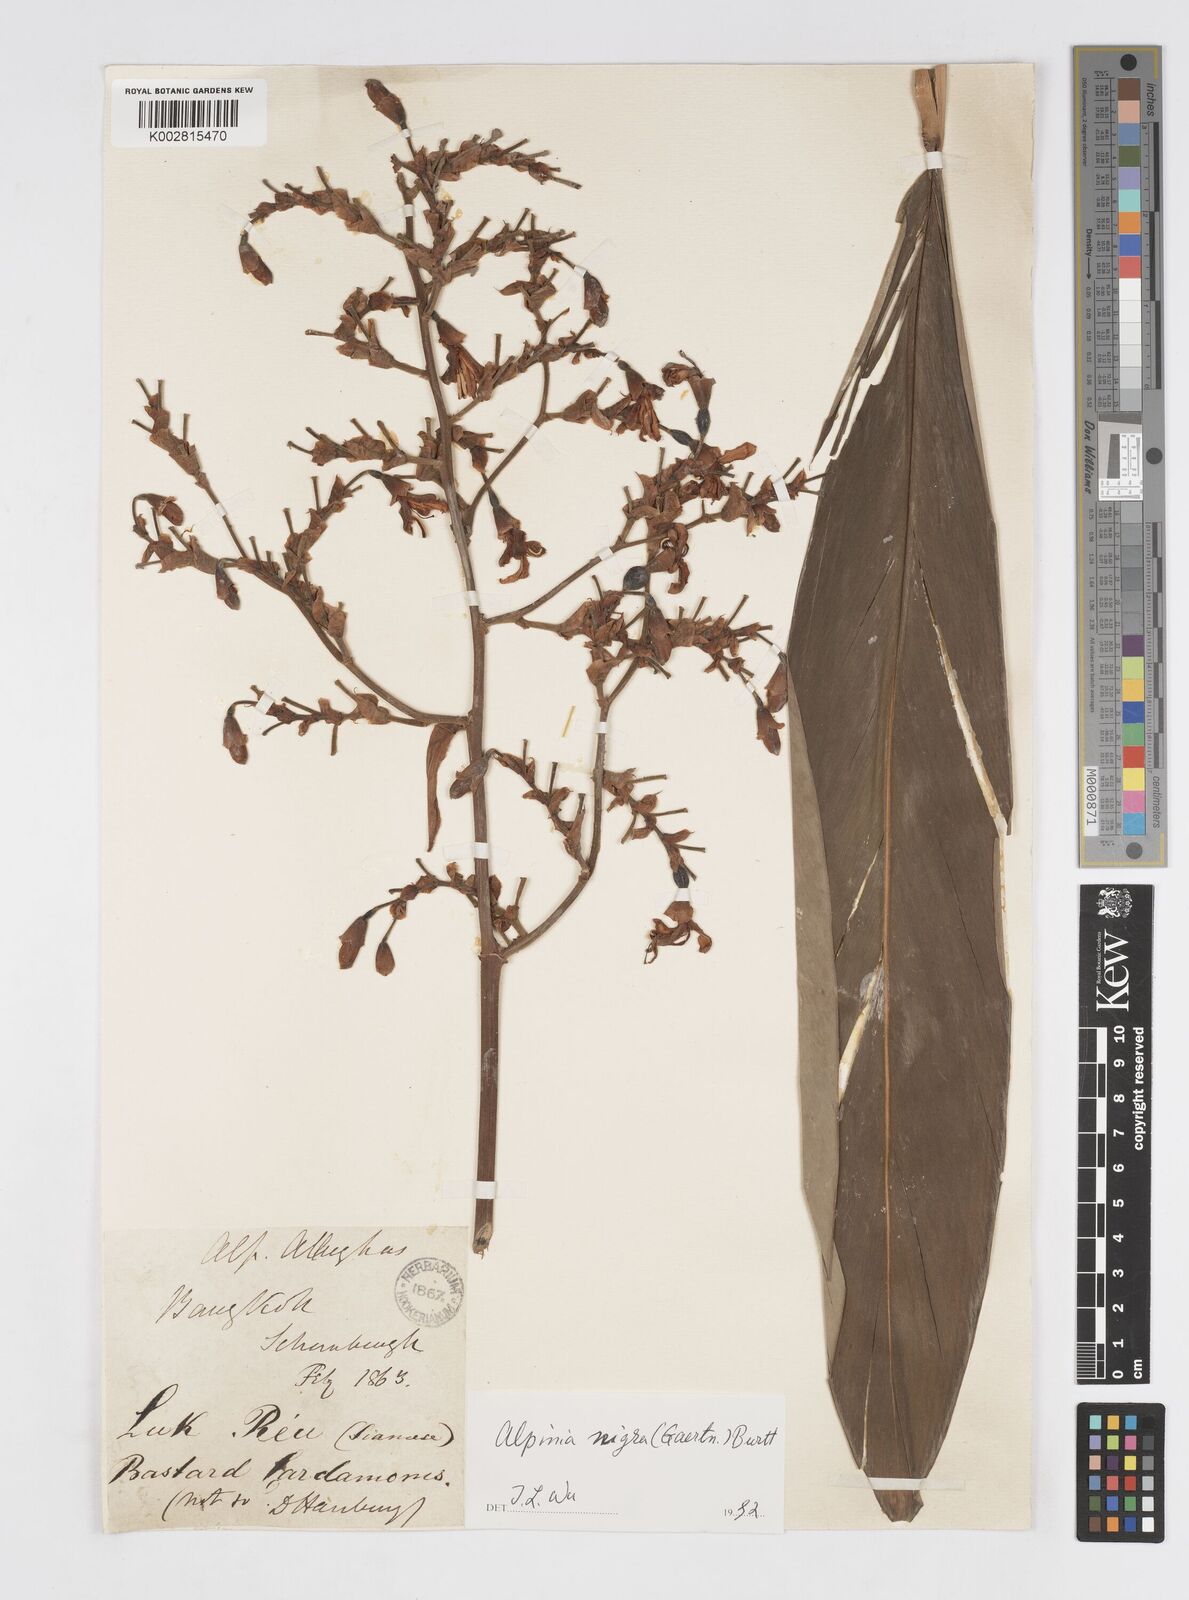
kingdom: Plantae
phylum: Tracheophyta
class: Liliopsida
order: Zingiberales
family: Zingiberaceae
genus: Alpinia
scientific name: Alpinia nigra
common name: Black fruited galanga
